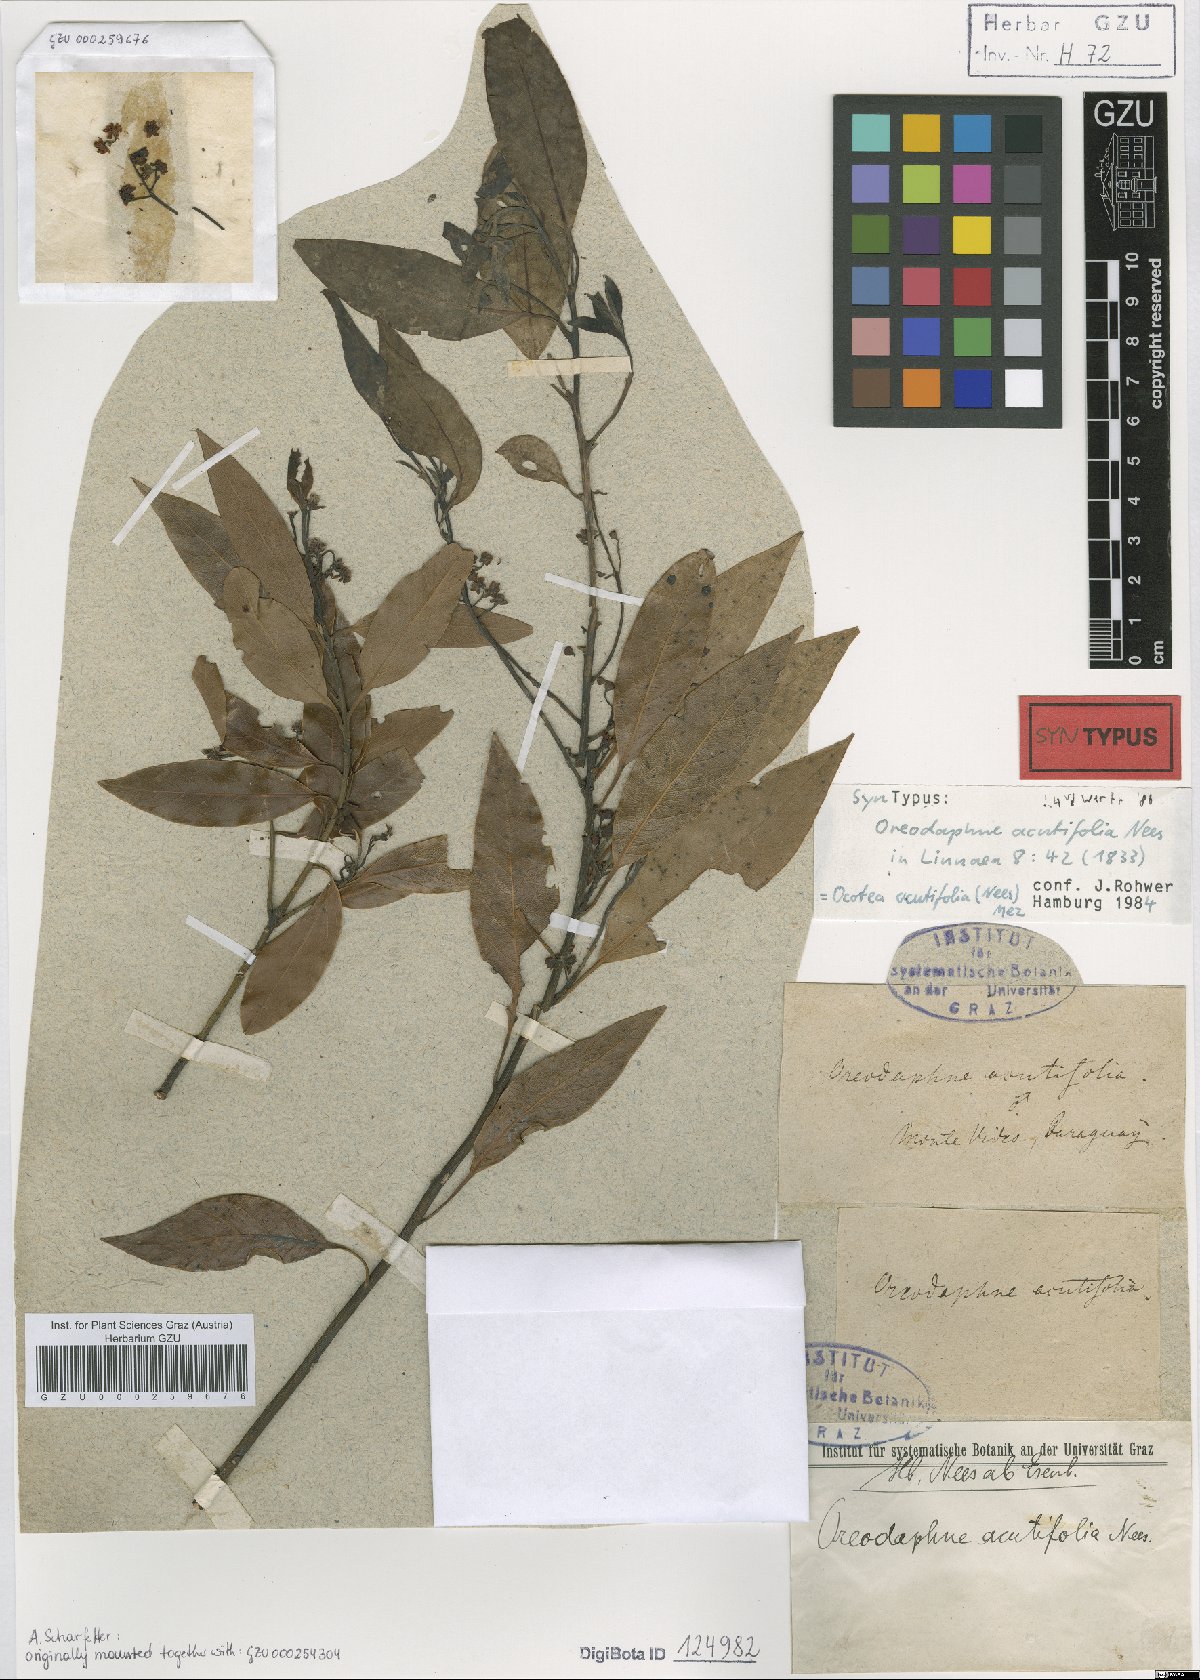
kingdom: Plantae
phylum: Tracheophyta
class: Magnoliopsida
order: Laurales
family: Lauraceae
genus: Ocotea
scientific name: Ocotea acutifolia
